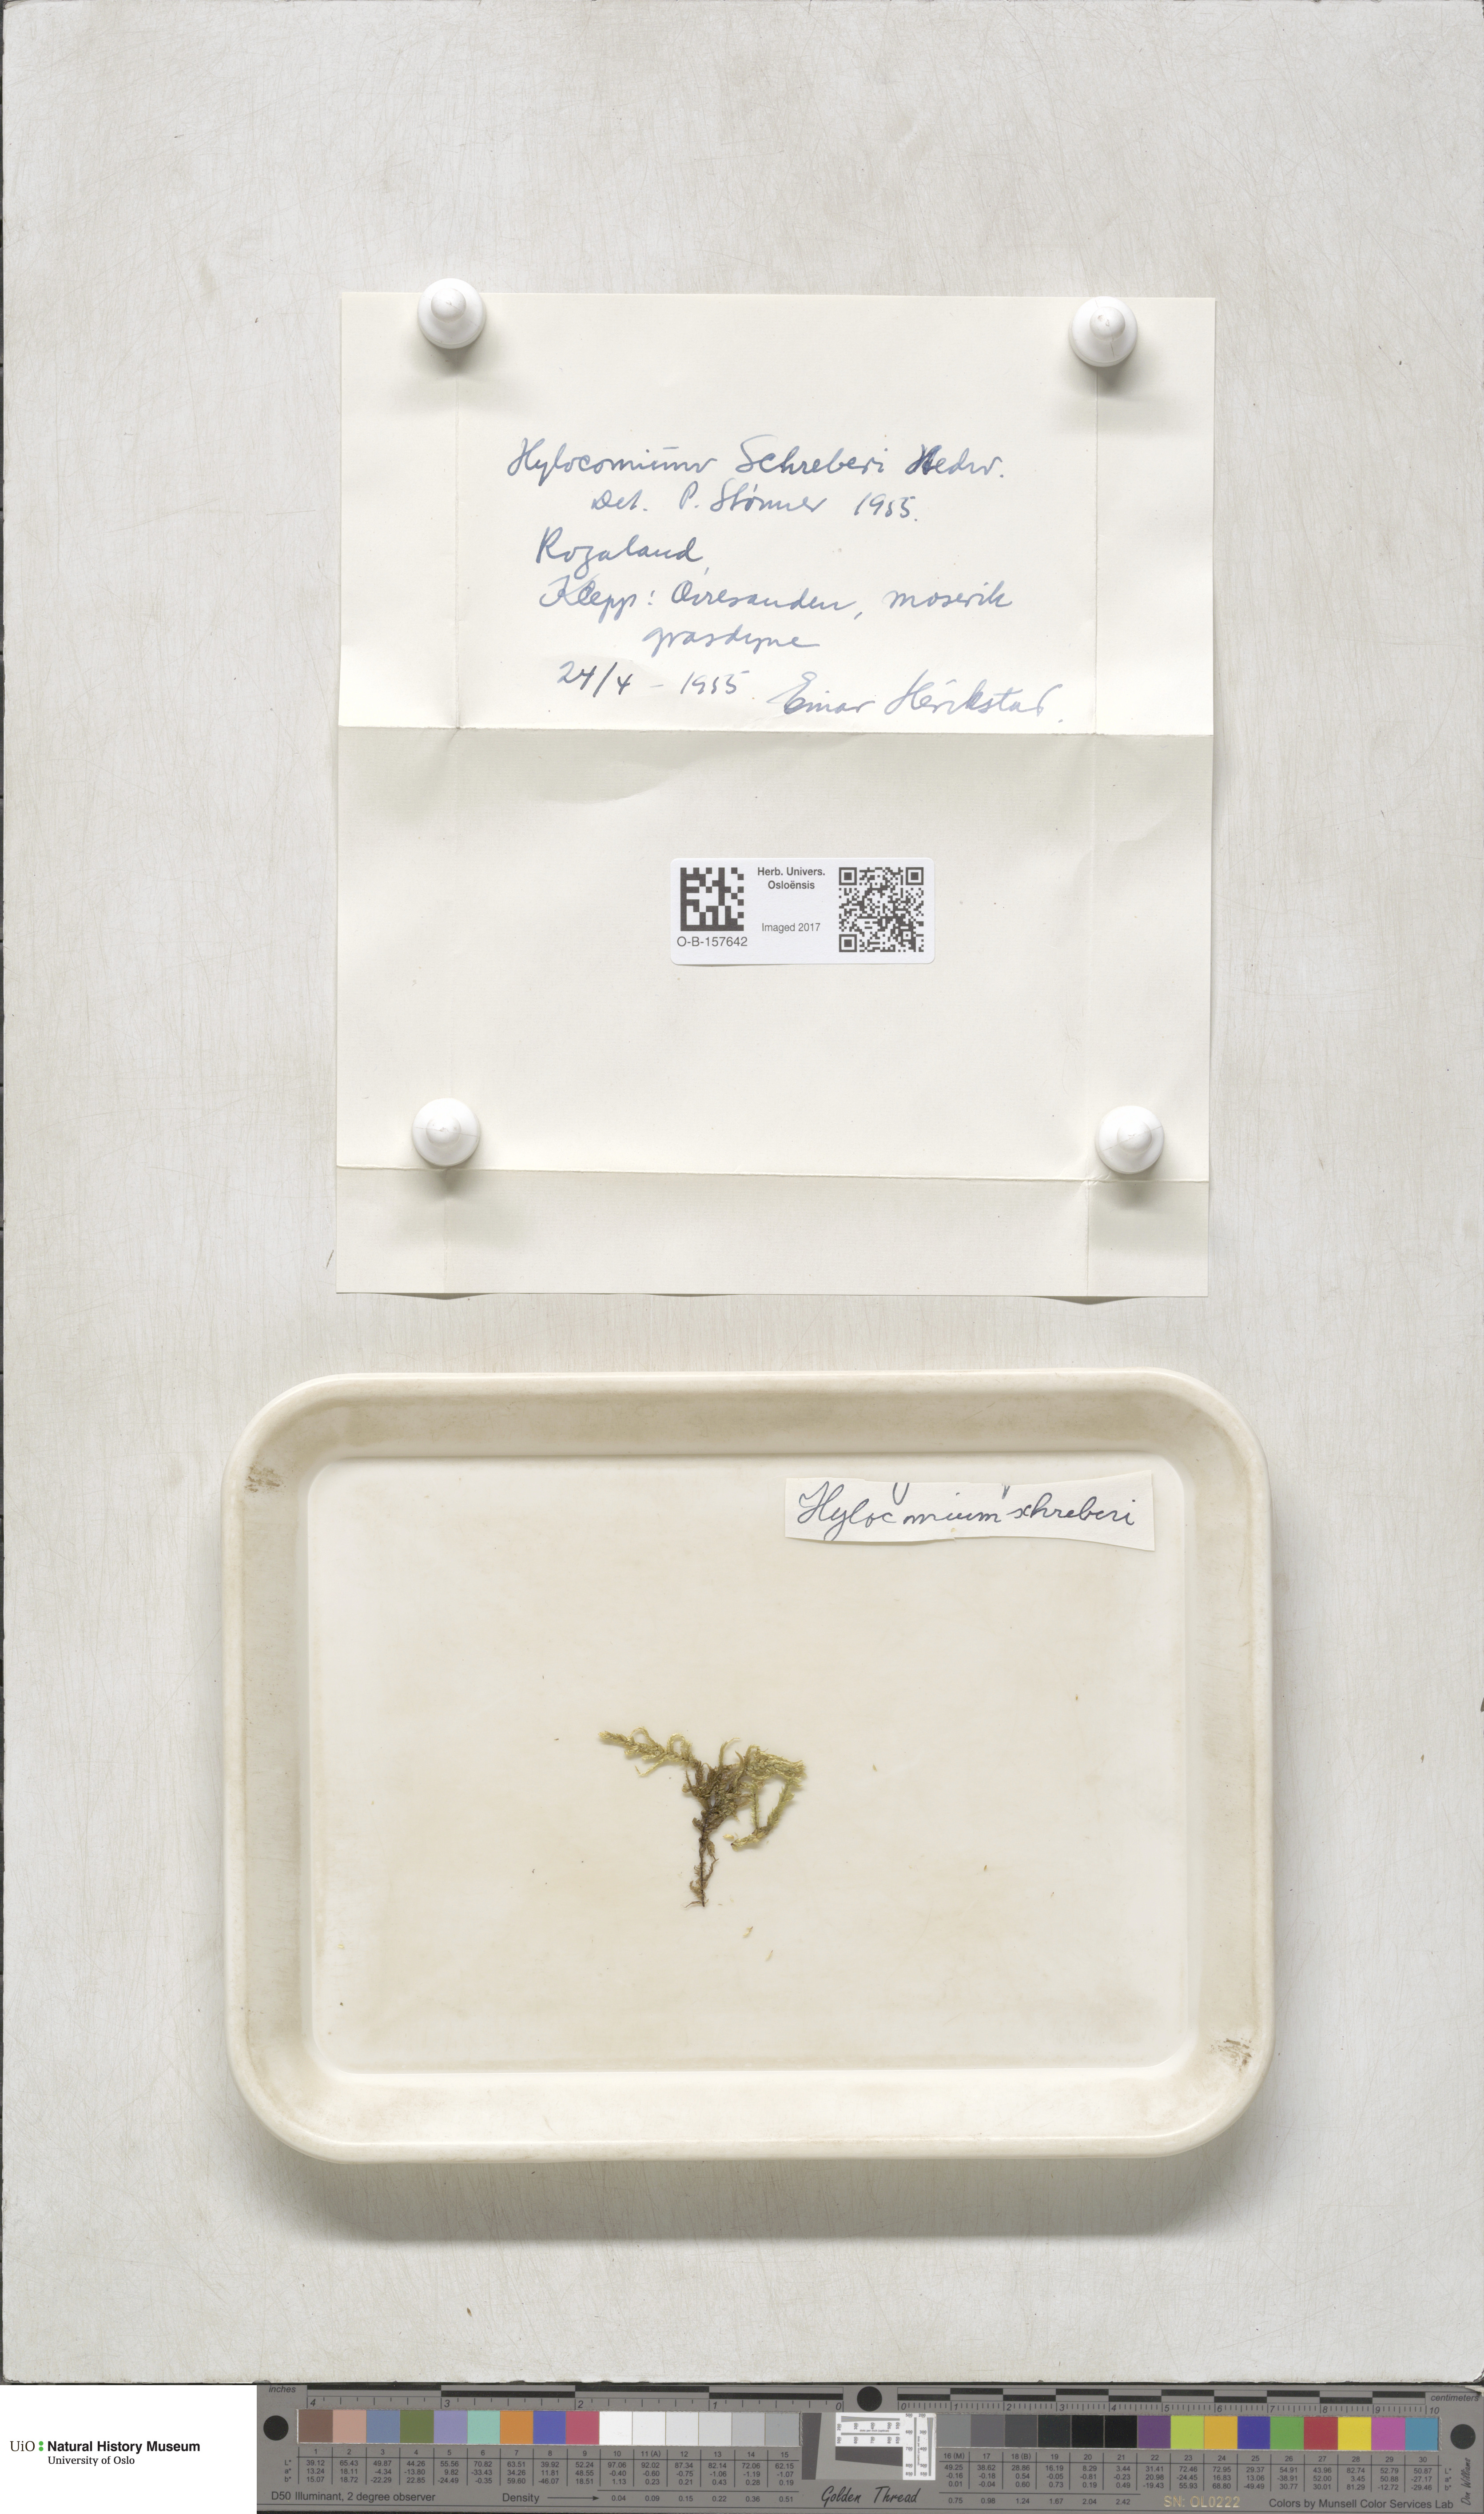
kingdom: Plantae
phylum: Bryophyta
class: Bryopsida
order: Hypnales
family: Hylocomiaceae
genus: Pleurozium
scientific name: Pleurozium schreberi
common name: Red-stemmed feather moss
